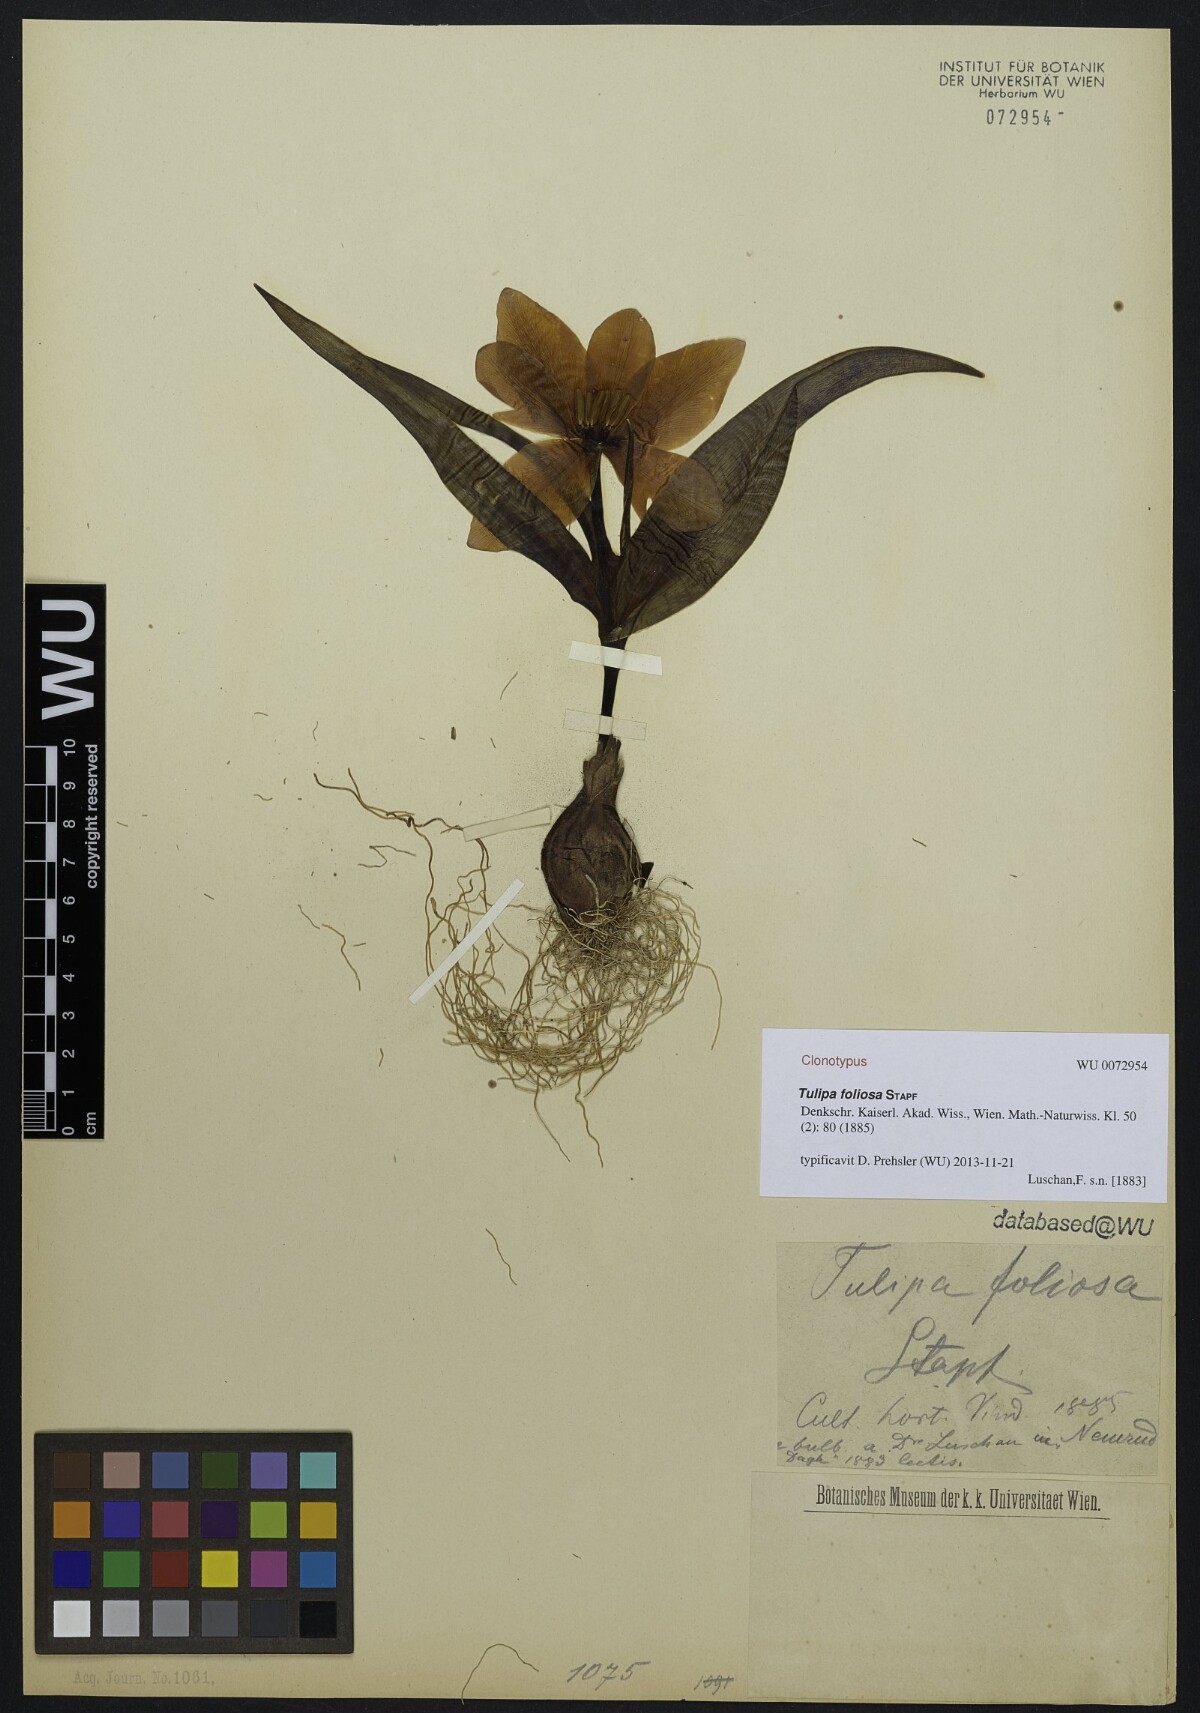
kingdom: Plantae
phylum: Tracheophyta
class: Liliopsida
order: Liliales
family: Liliaceae
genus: Tulipa
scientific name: Tulipa foliosa
